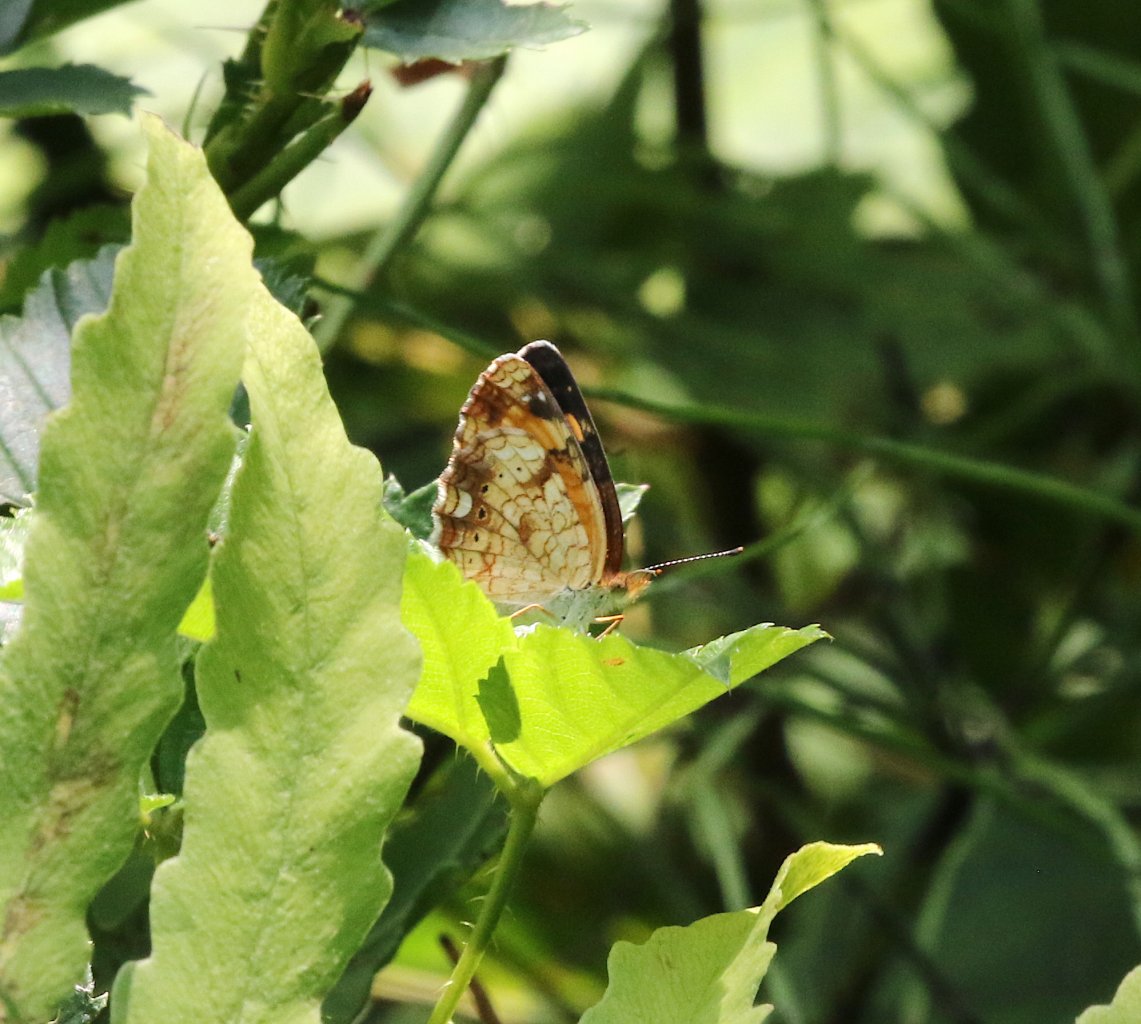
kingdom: Animalia
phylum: Arthropoda
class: Insecta
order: Lepidoptera
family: Nymphalidae
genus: Phyciodes
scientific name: Phyciodes tharos
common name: Pearl Crescent
